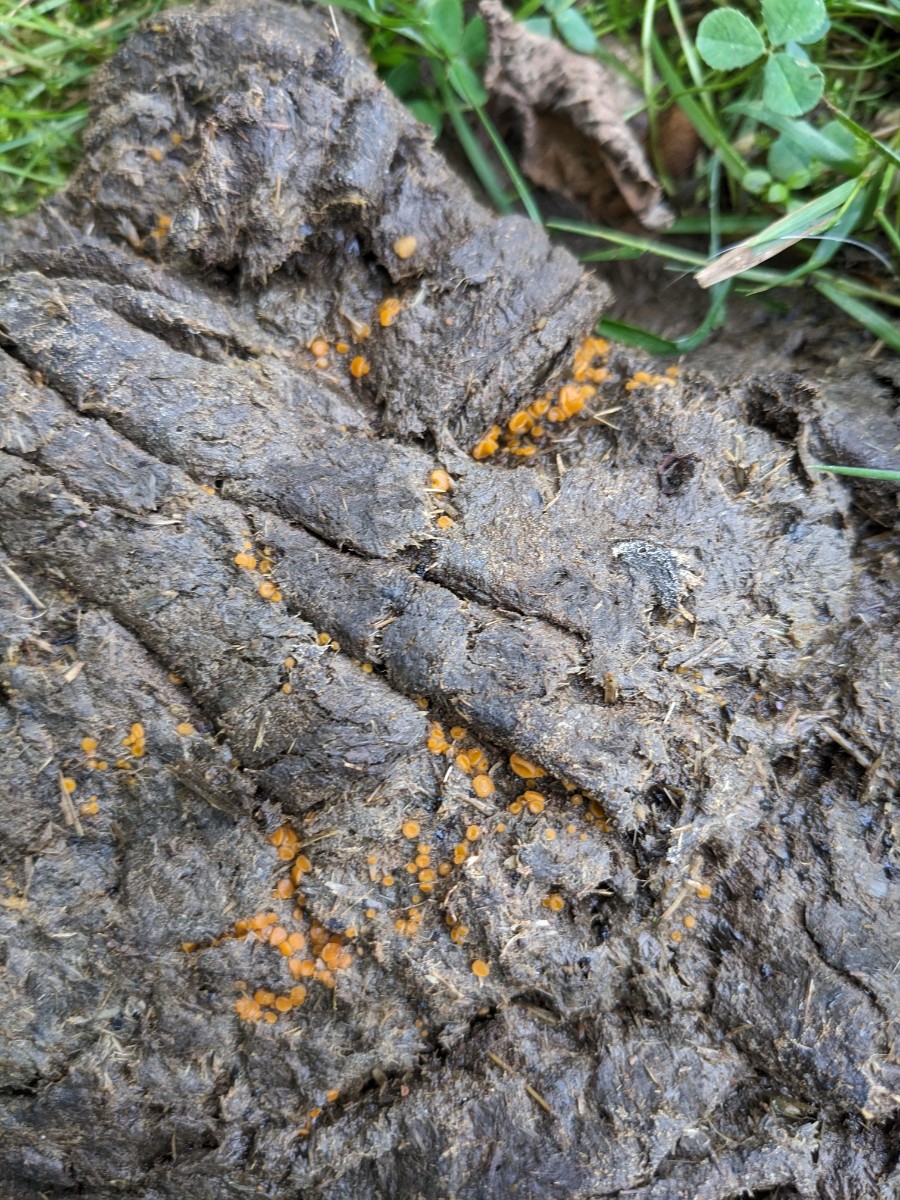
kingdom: Fungi
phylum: Ascomycota
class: Pezizomycetes
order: Pezizales
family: Pyronemataceae
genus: Cheilymenia
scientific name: Cheilymenia granulata
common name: møgbæger
